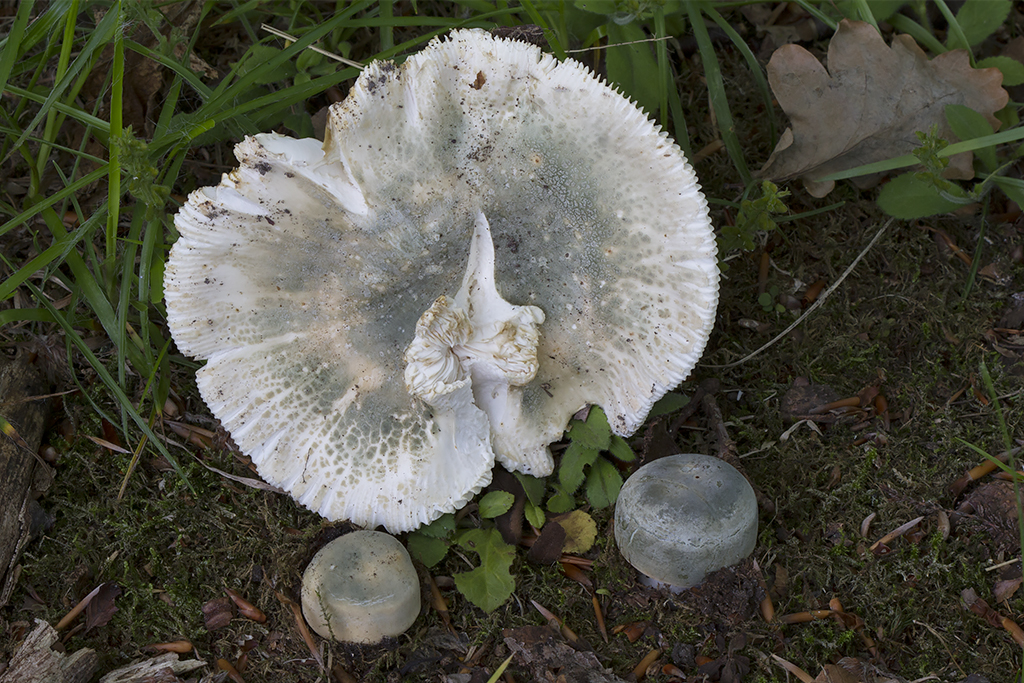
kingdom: Fungi
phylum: Basidiomycota
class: Agaricomycetes
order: Russulales
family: Russulaceae
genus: Russula
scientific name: Russula virescens
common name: spanskgrøn skørhat
